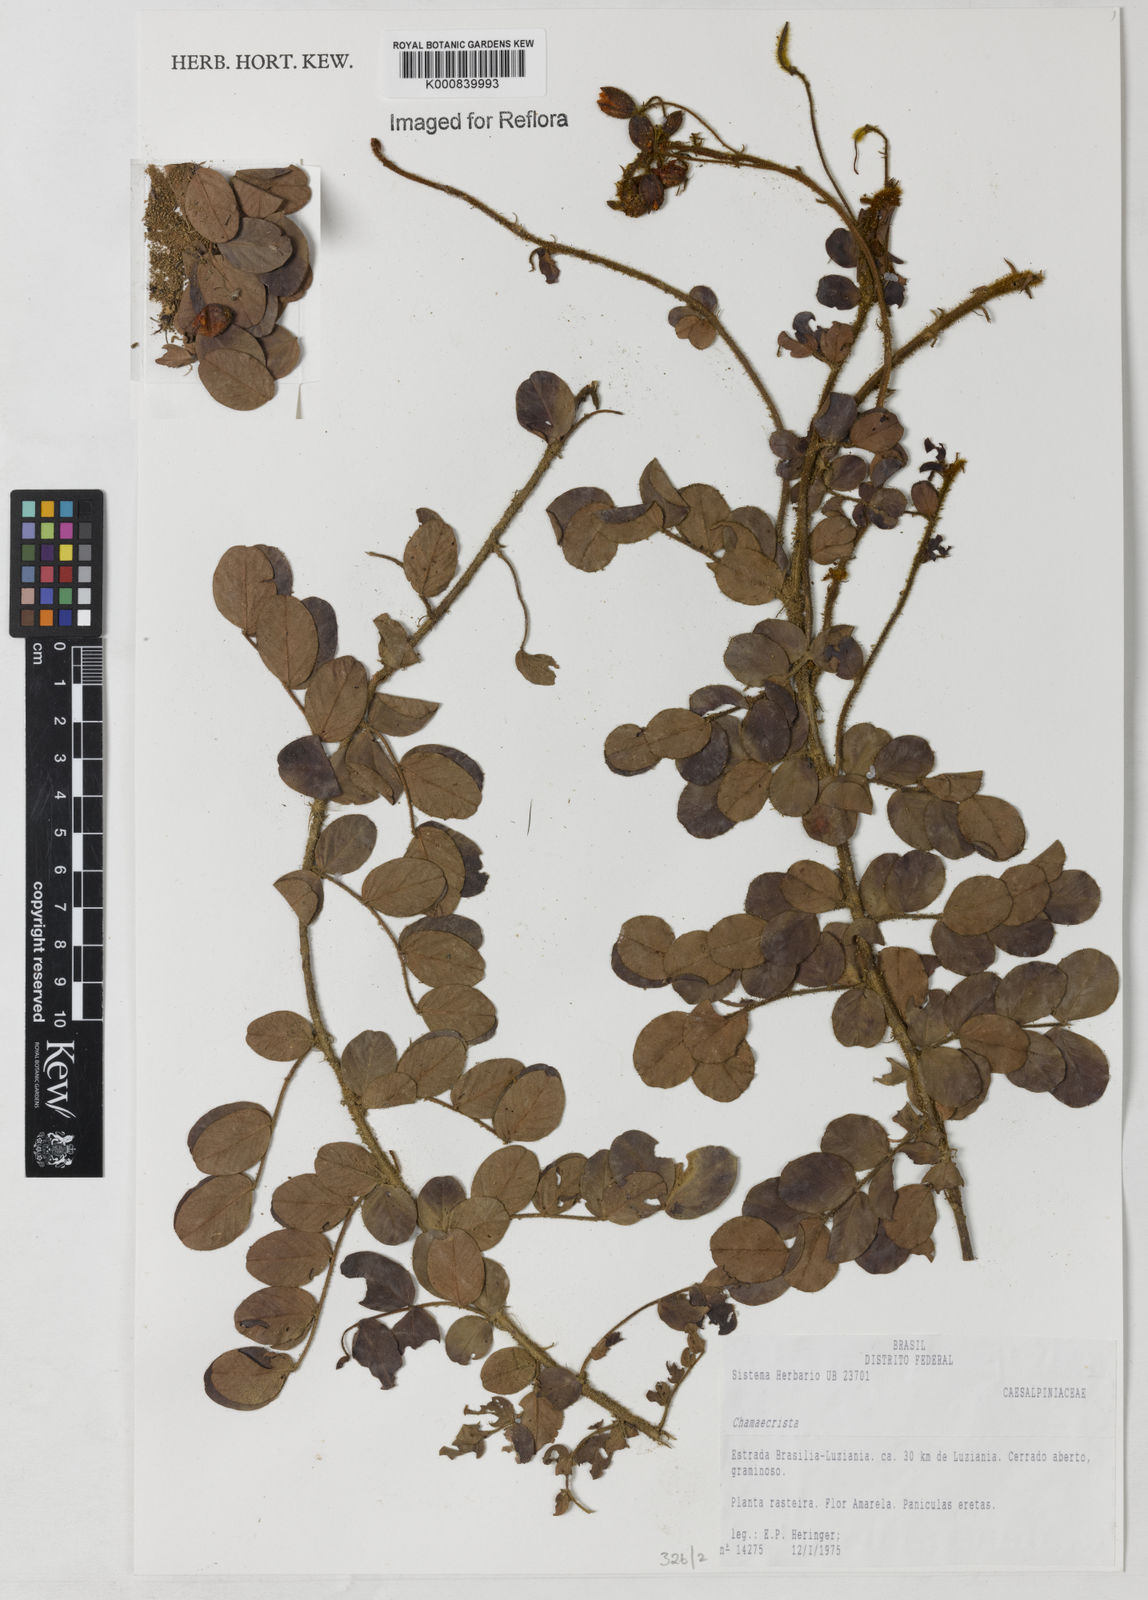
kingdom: Plantae
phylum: Tracheophyta
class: Magnoliopsida
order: Fabales
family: Fabaceae
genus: Chamaecrista
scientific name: Chamaecrista benthamiana
